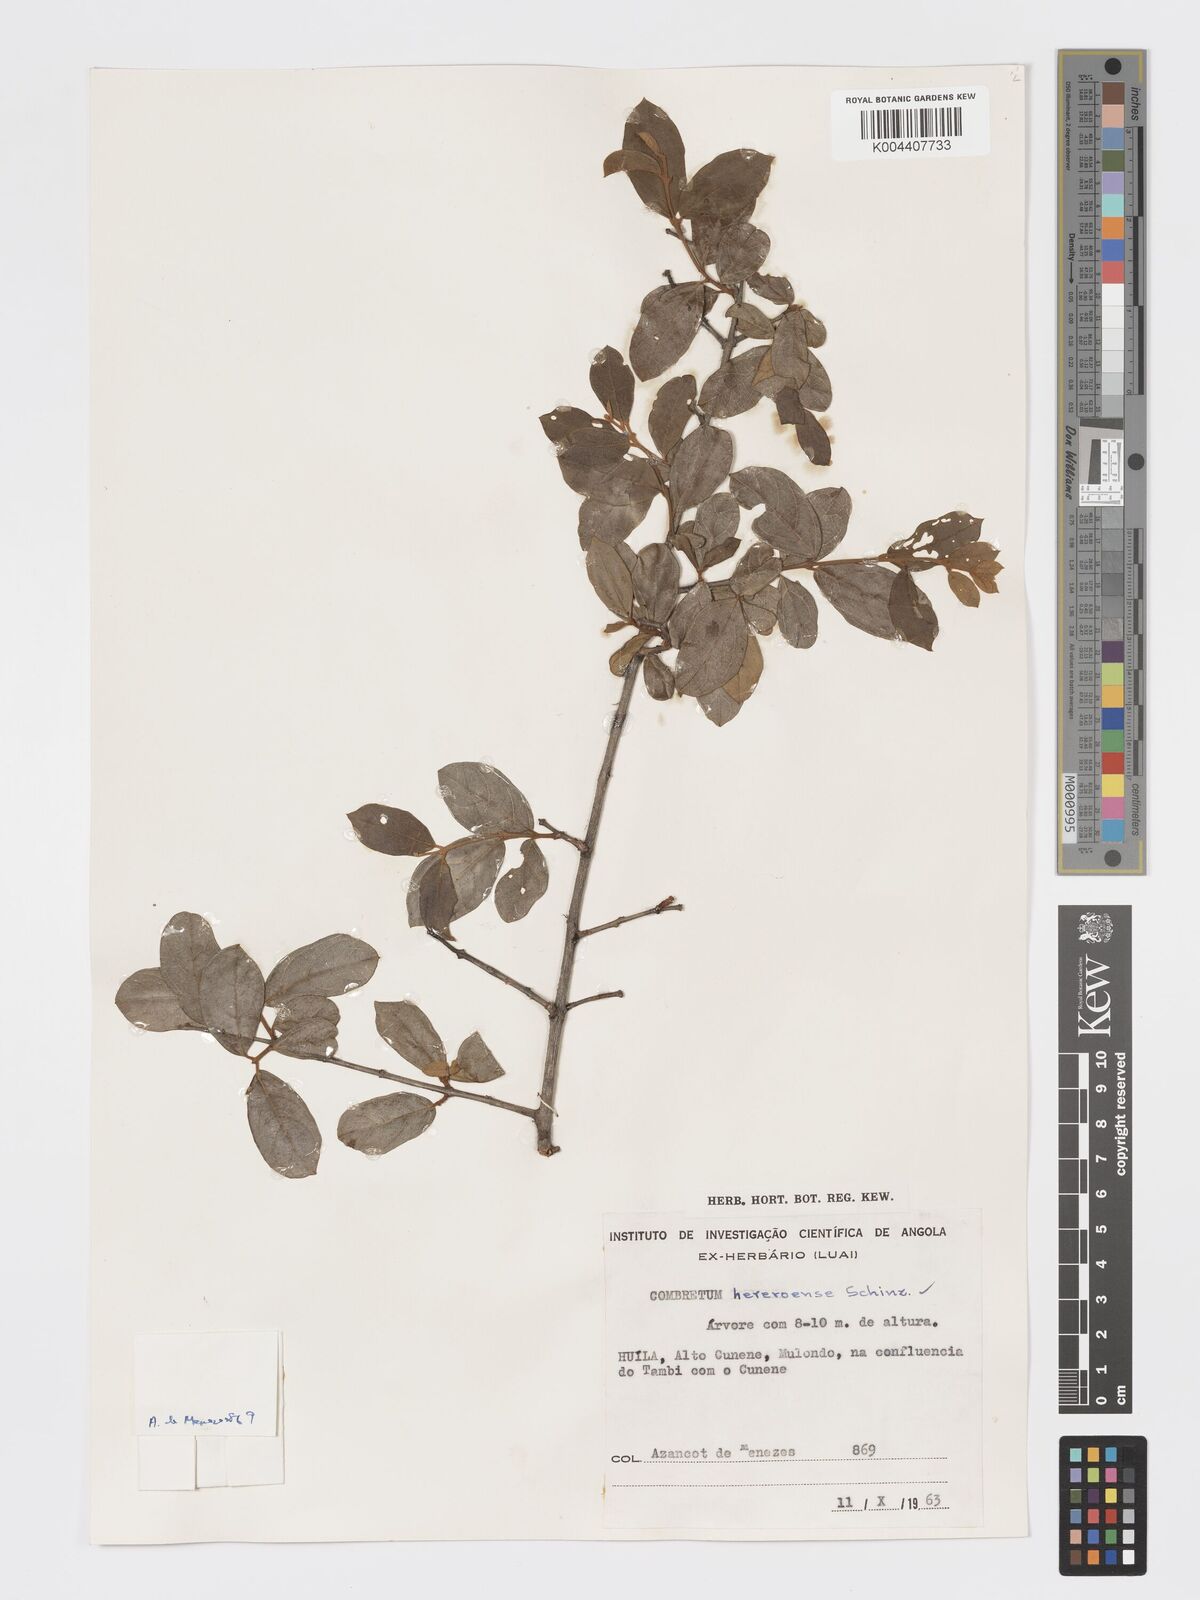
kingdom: Plantae
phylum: Tracheophyta
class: Magnoliopsida
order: Myrtales
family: Combretaceae
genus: Combretum
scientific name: Combretum hereroense
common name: Russet bushwillow
